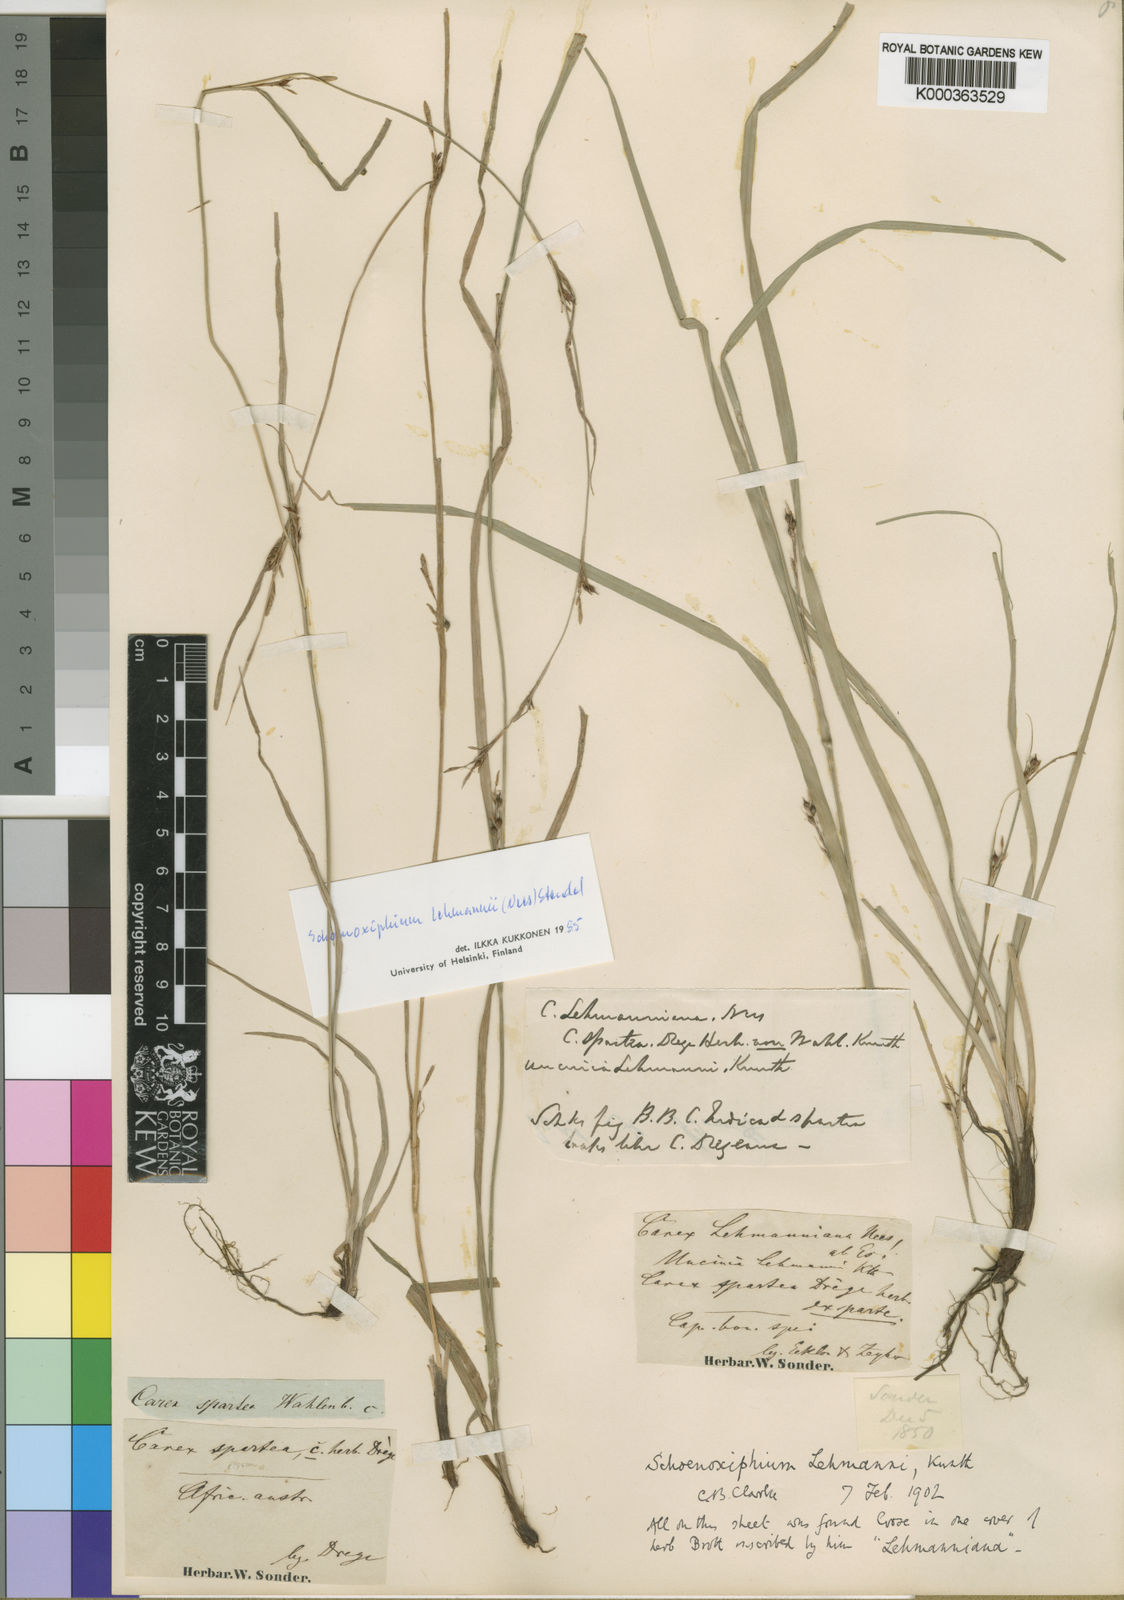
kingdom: Plantae
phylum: Tracheophyta
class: Liliopsida
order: Poales
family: Cyperaceae
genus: Carex
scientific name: Carex uhligii
